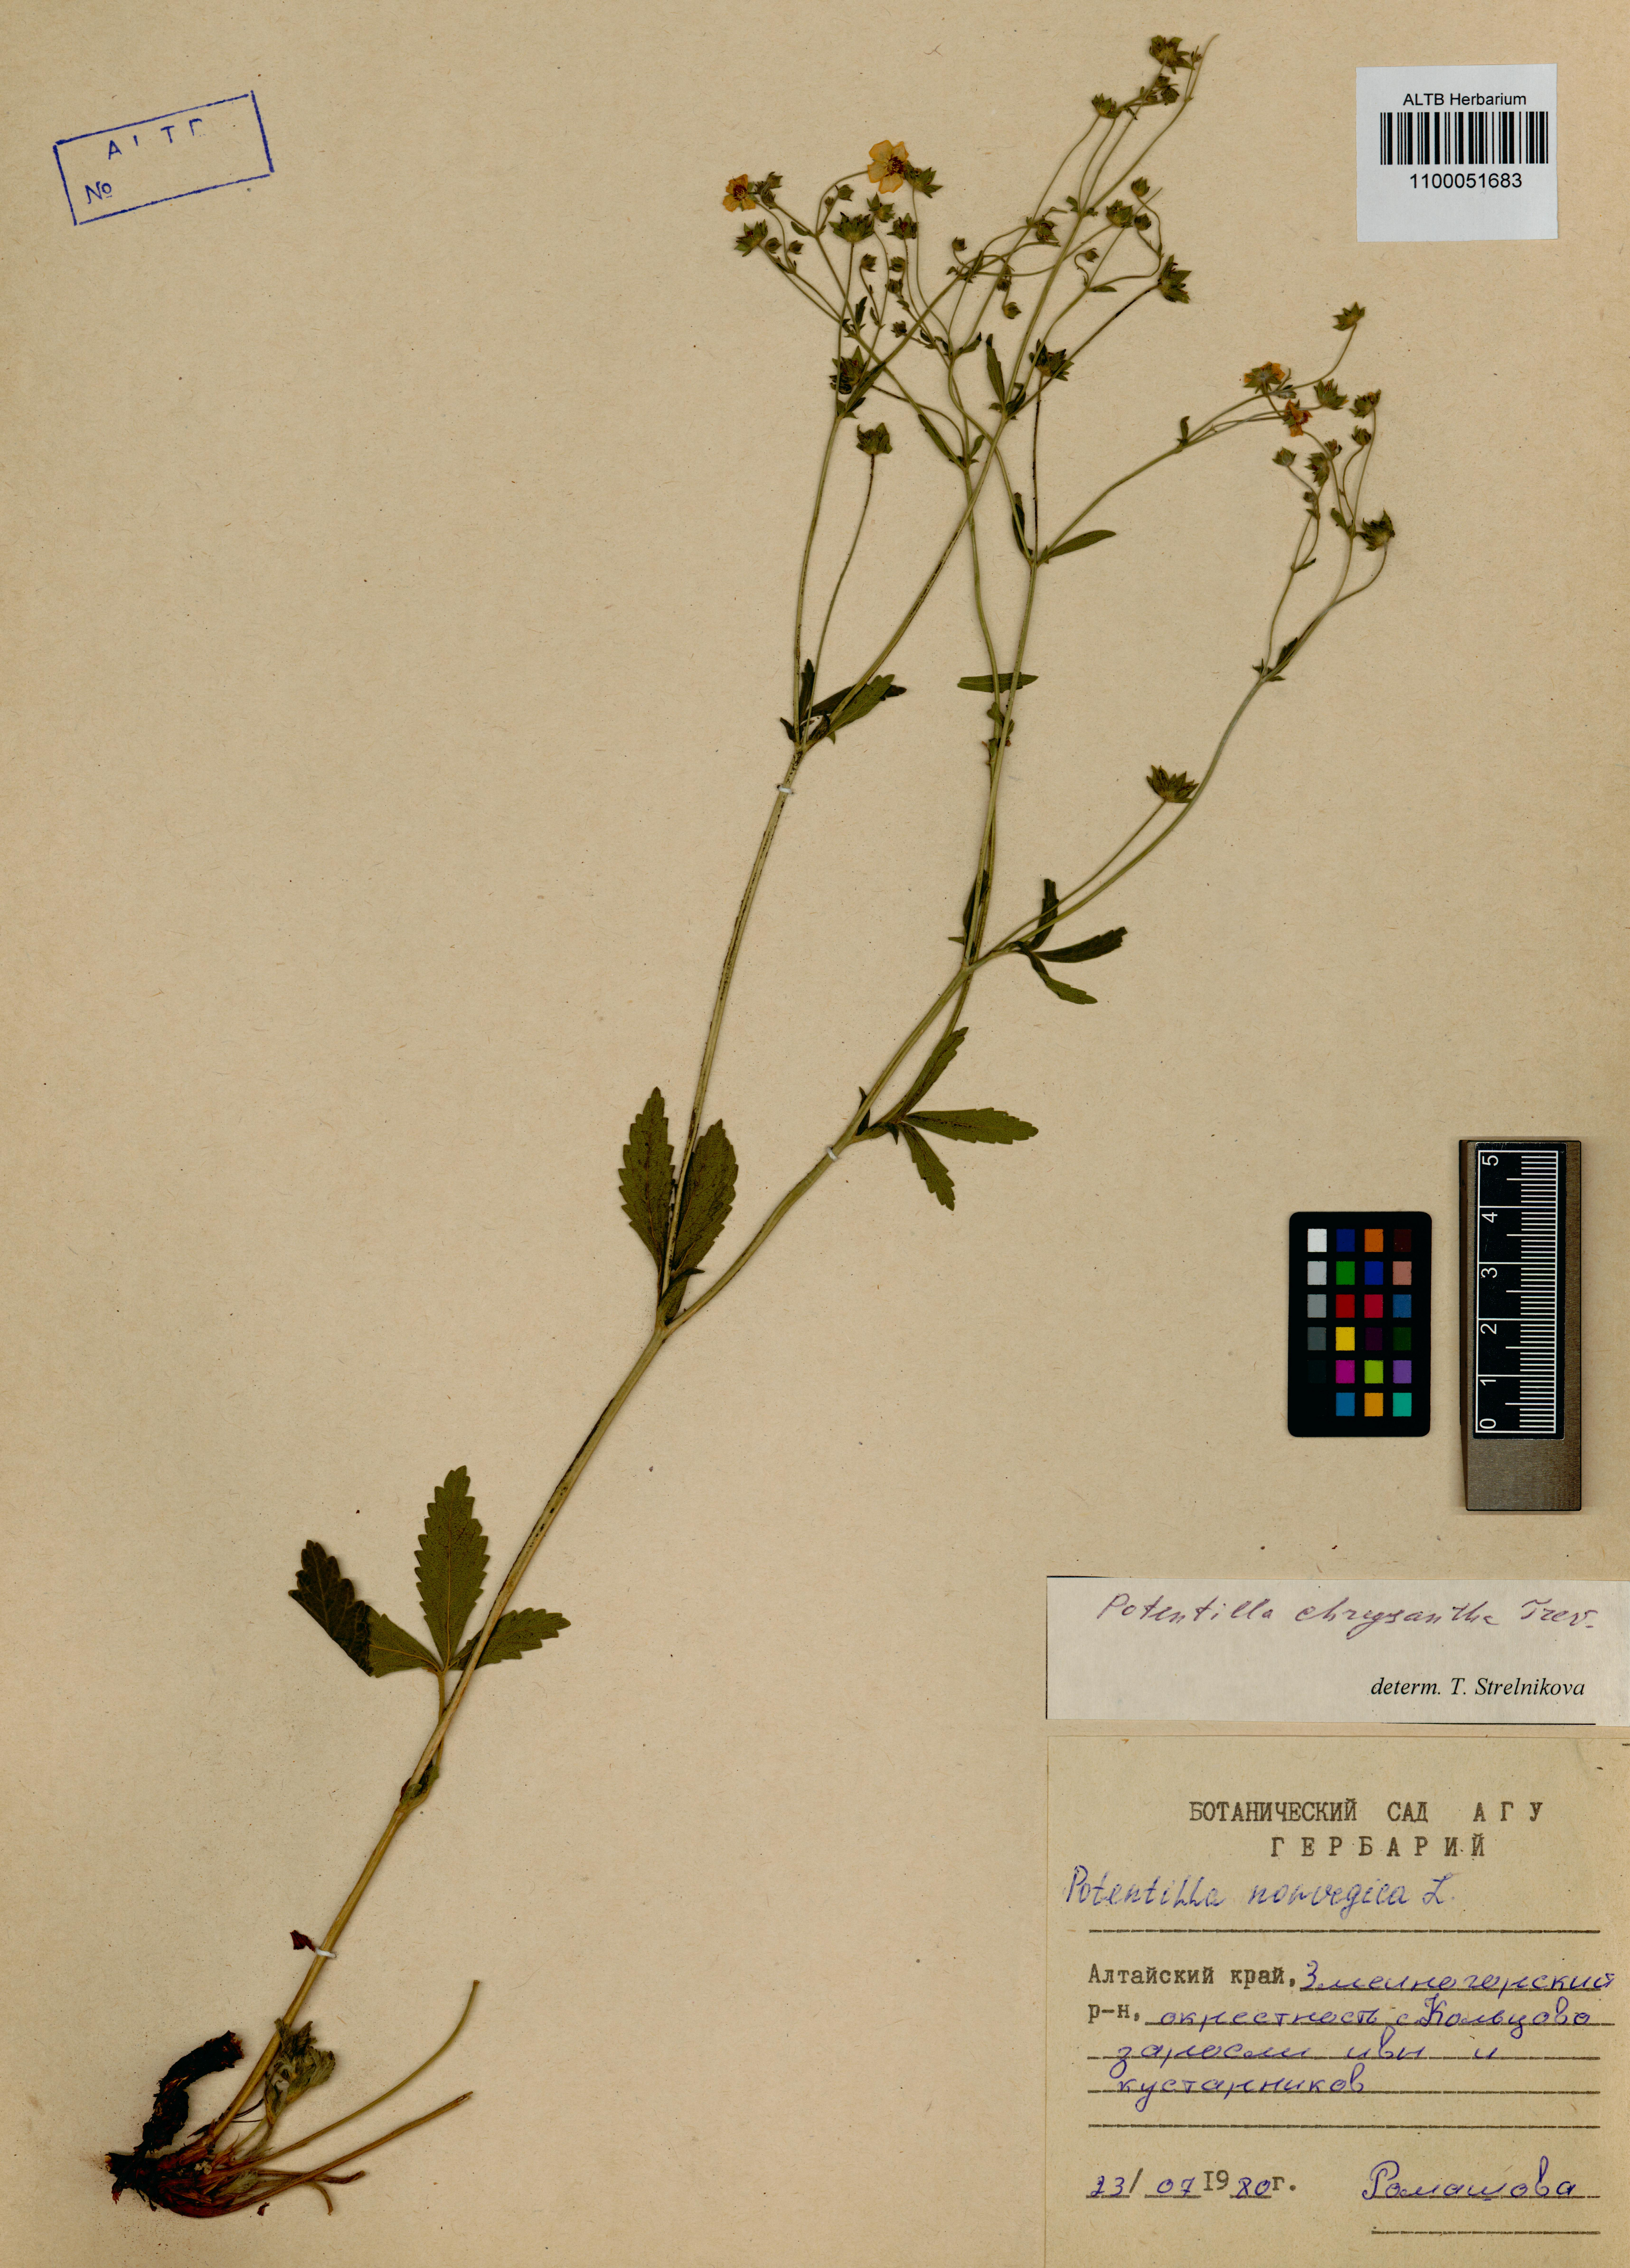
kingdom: Plantae
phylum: Tracheophyta
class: Magnoliopsida
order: Rosales
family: Rosaceae
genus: Potentilla
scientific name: Potentilla chrysantha
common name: Thuringian cinquefoil
